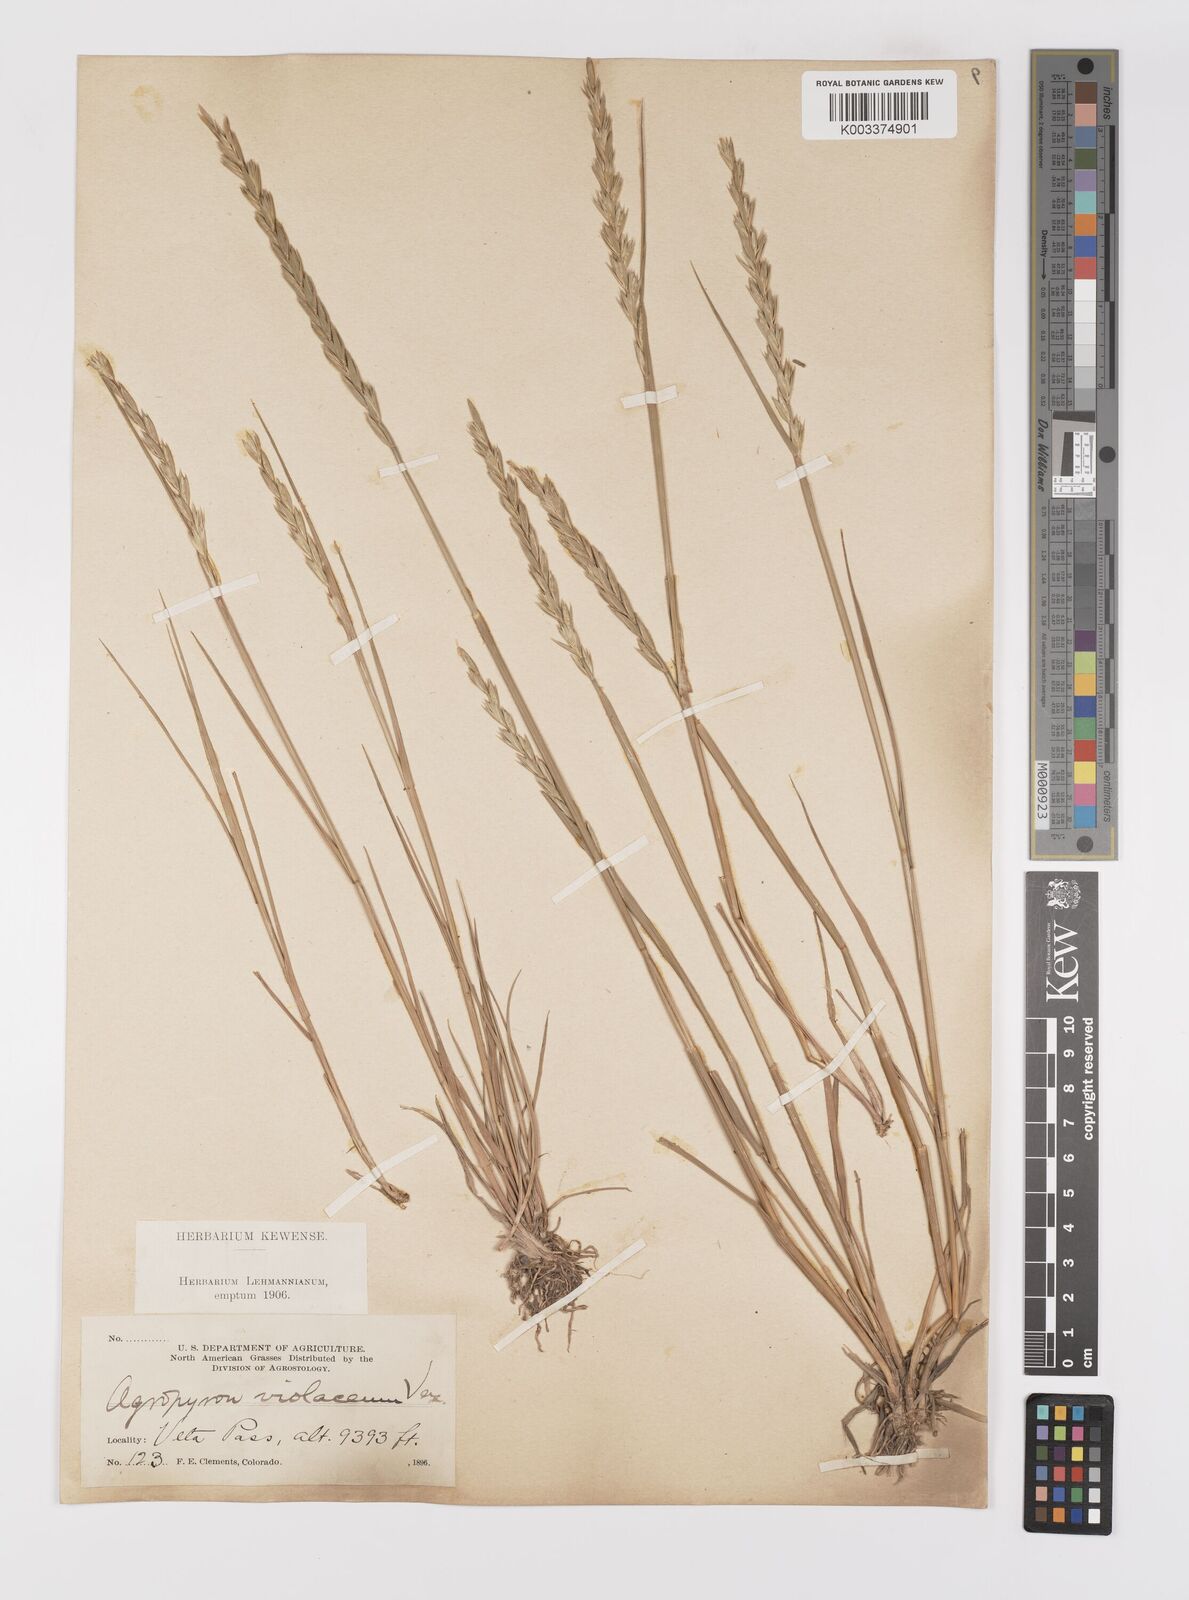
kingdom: Plantae
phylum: Tracheophyta
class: Liliopsida
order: Poales
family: Poaceae
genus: Elymus
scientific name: Elymus violaceus
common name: Arctic wheatgrass
